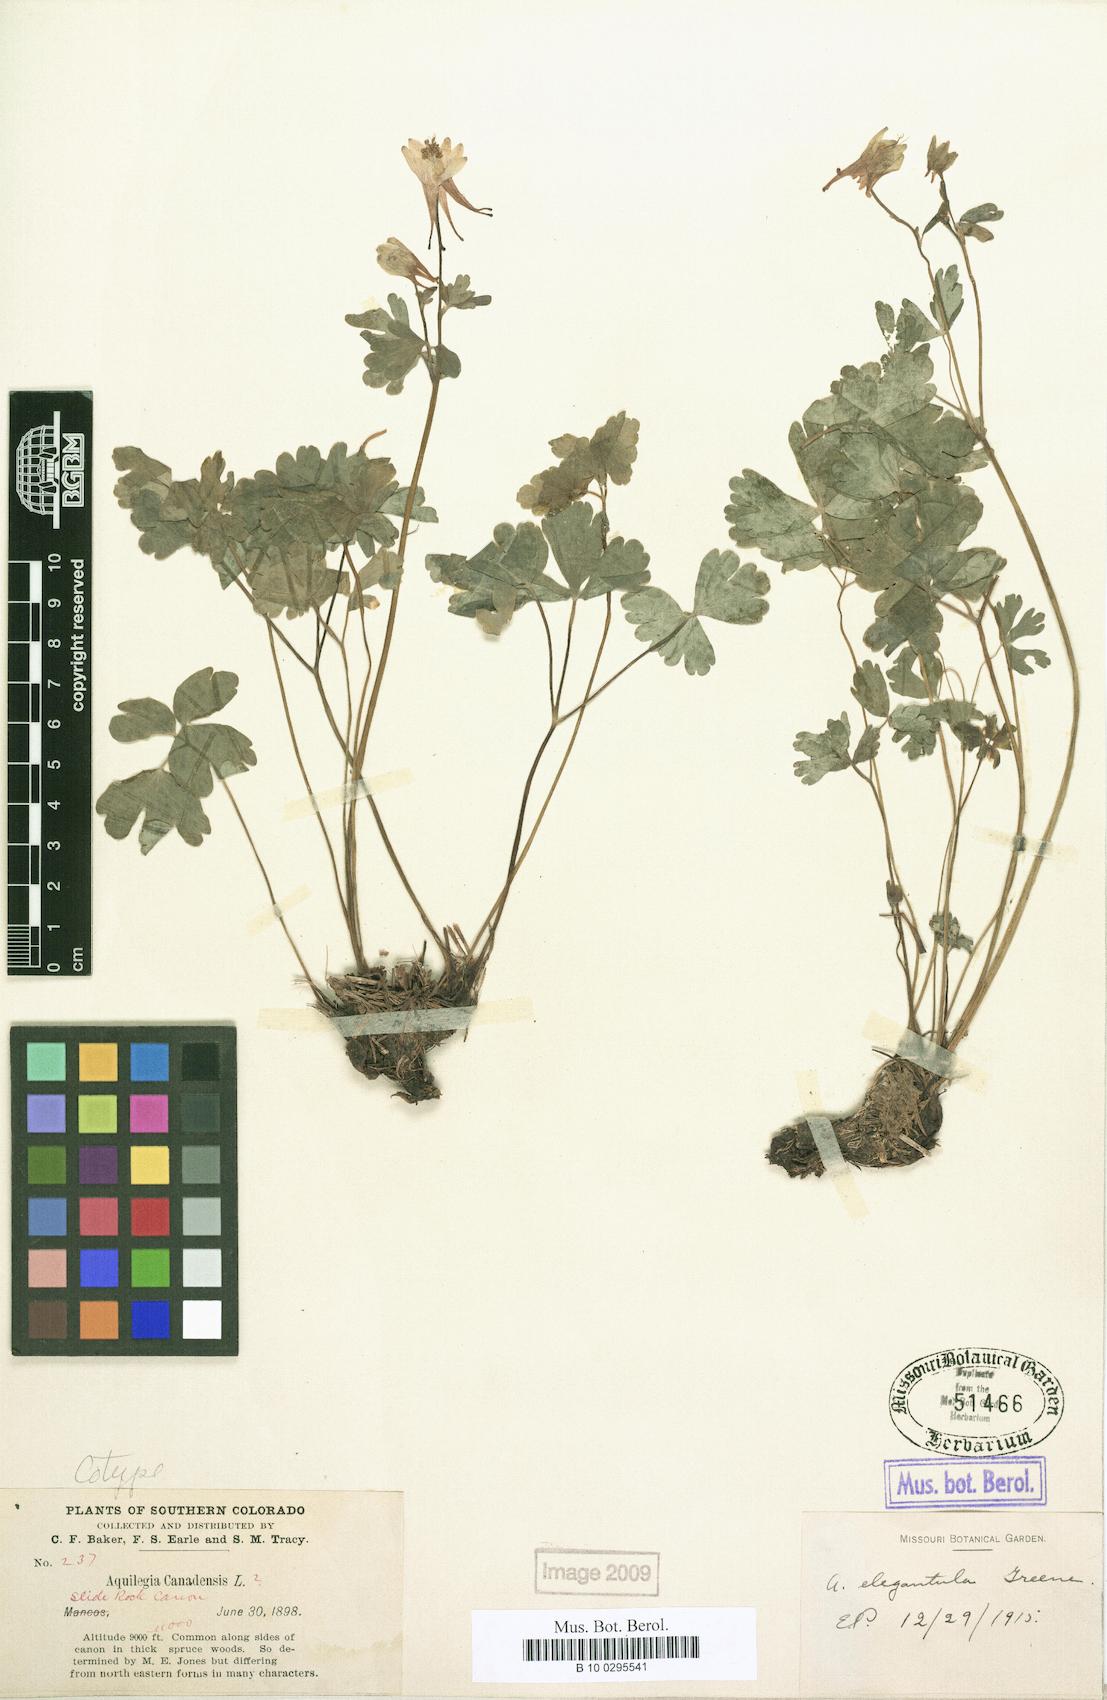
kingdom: Plantae
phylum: Tracheophyta
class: Magnoliopsida
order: Ranunculales
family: Ranunculaceae
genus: Aquilegia
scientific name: Aquilegia elegantula
